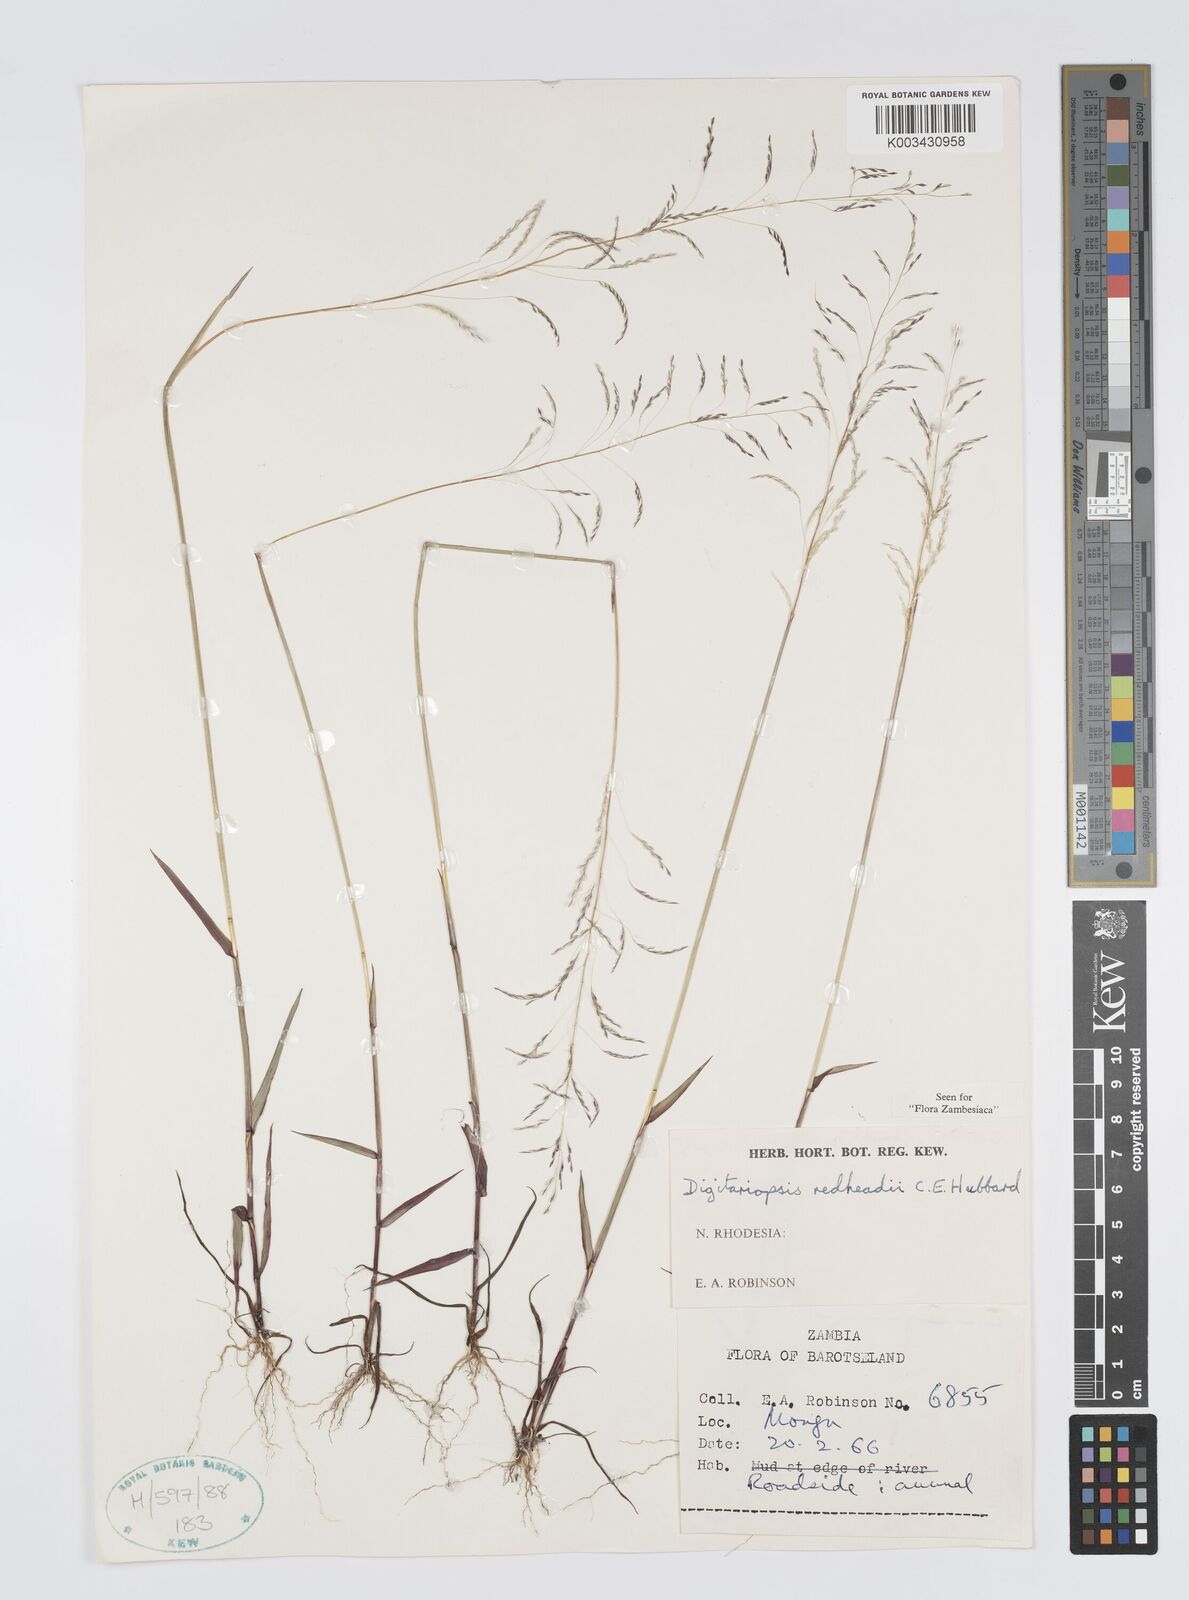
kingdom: Plantae
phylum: Tracheophyta
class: Liliopsida
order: Poales
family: Poaceae
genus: Digitaria
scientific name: Digitaria redheadii
